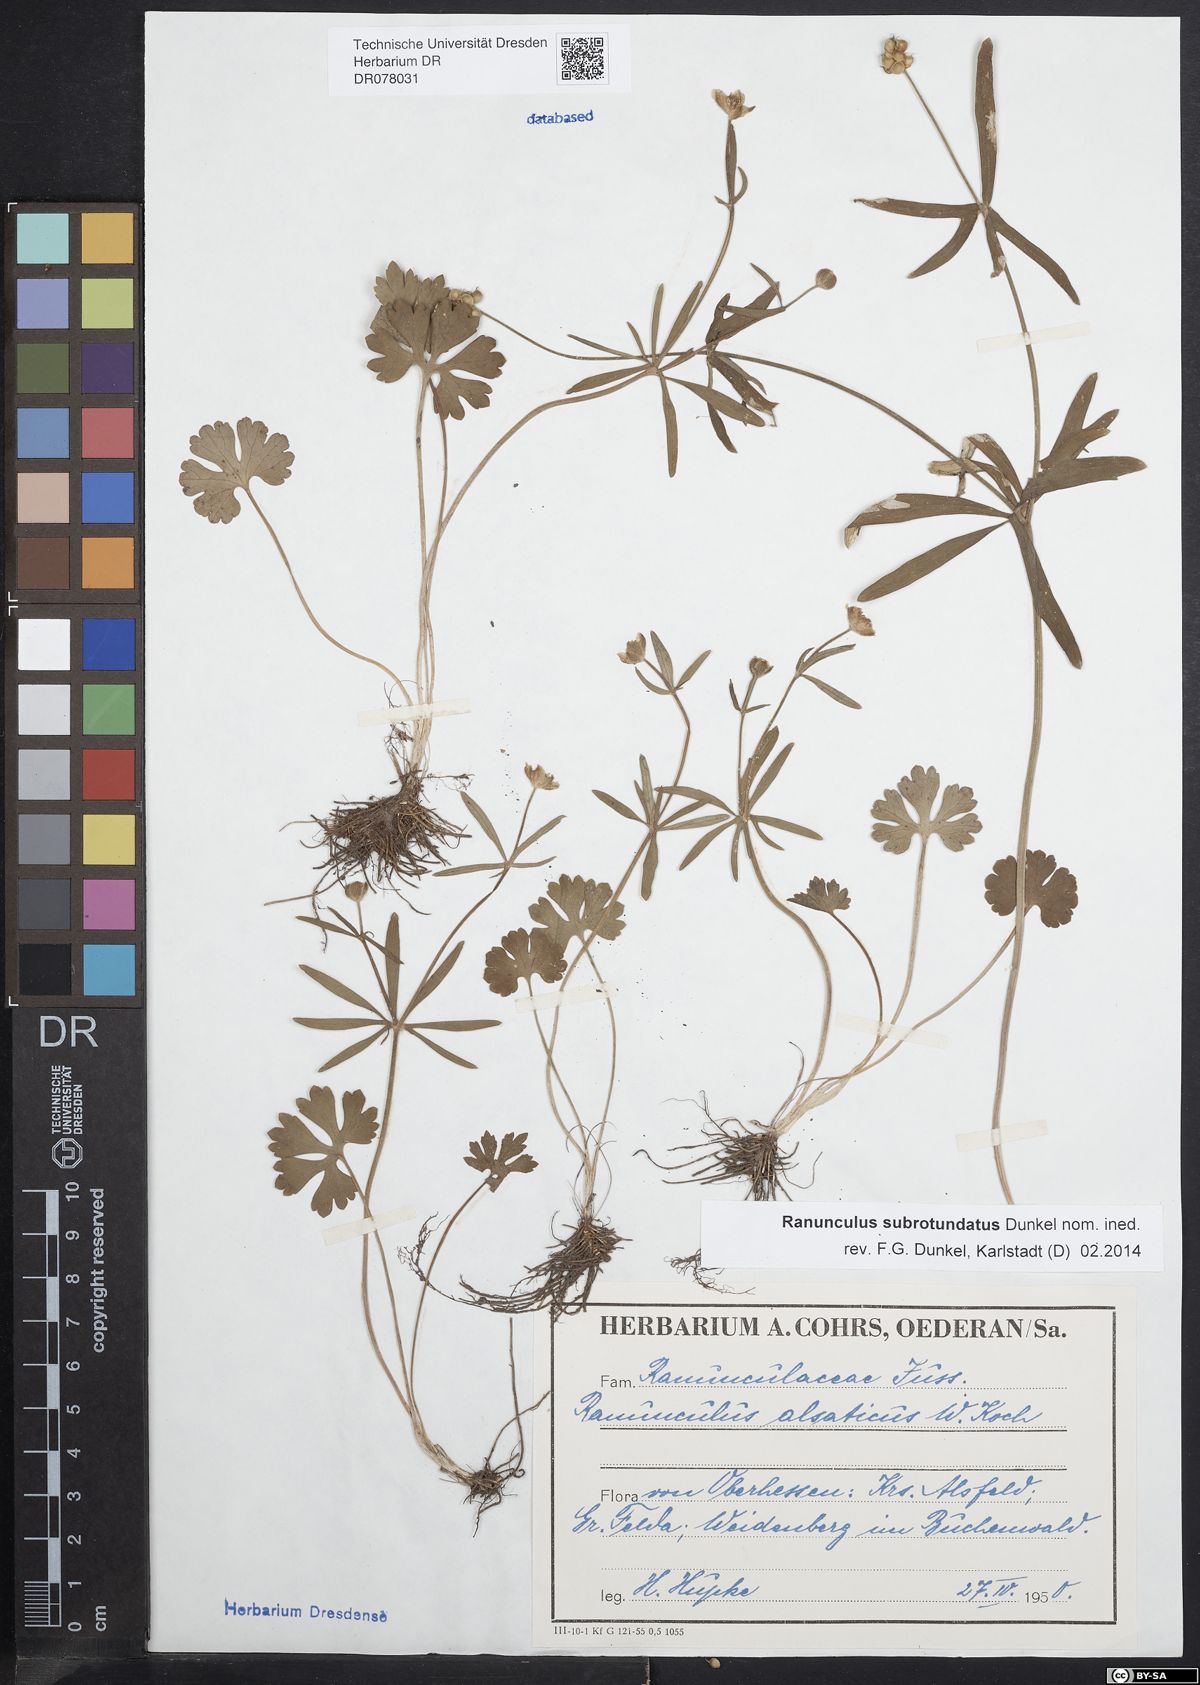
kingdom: Plantae
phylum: Tracheophyta
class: Magnoliopsida
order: Ranunculales
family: Ranunculaceae
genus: Ranunculus
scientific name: Ranunculus auricomus
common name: Goldilocks buttercup
